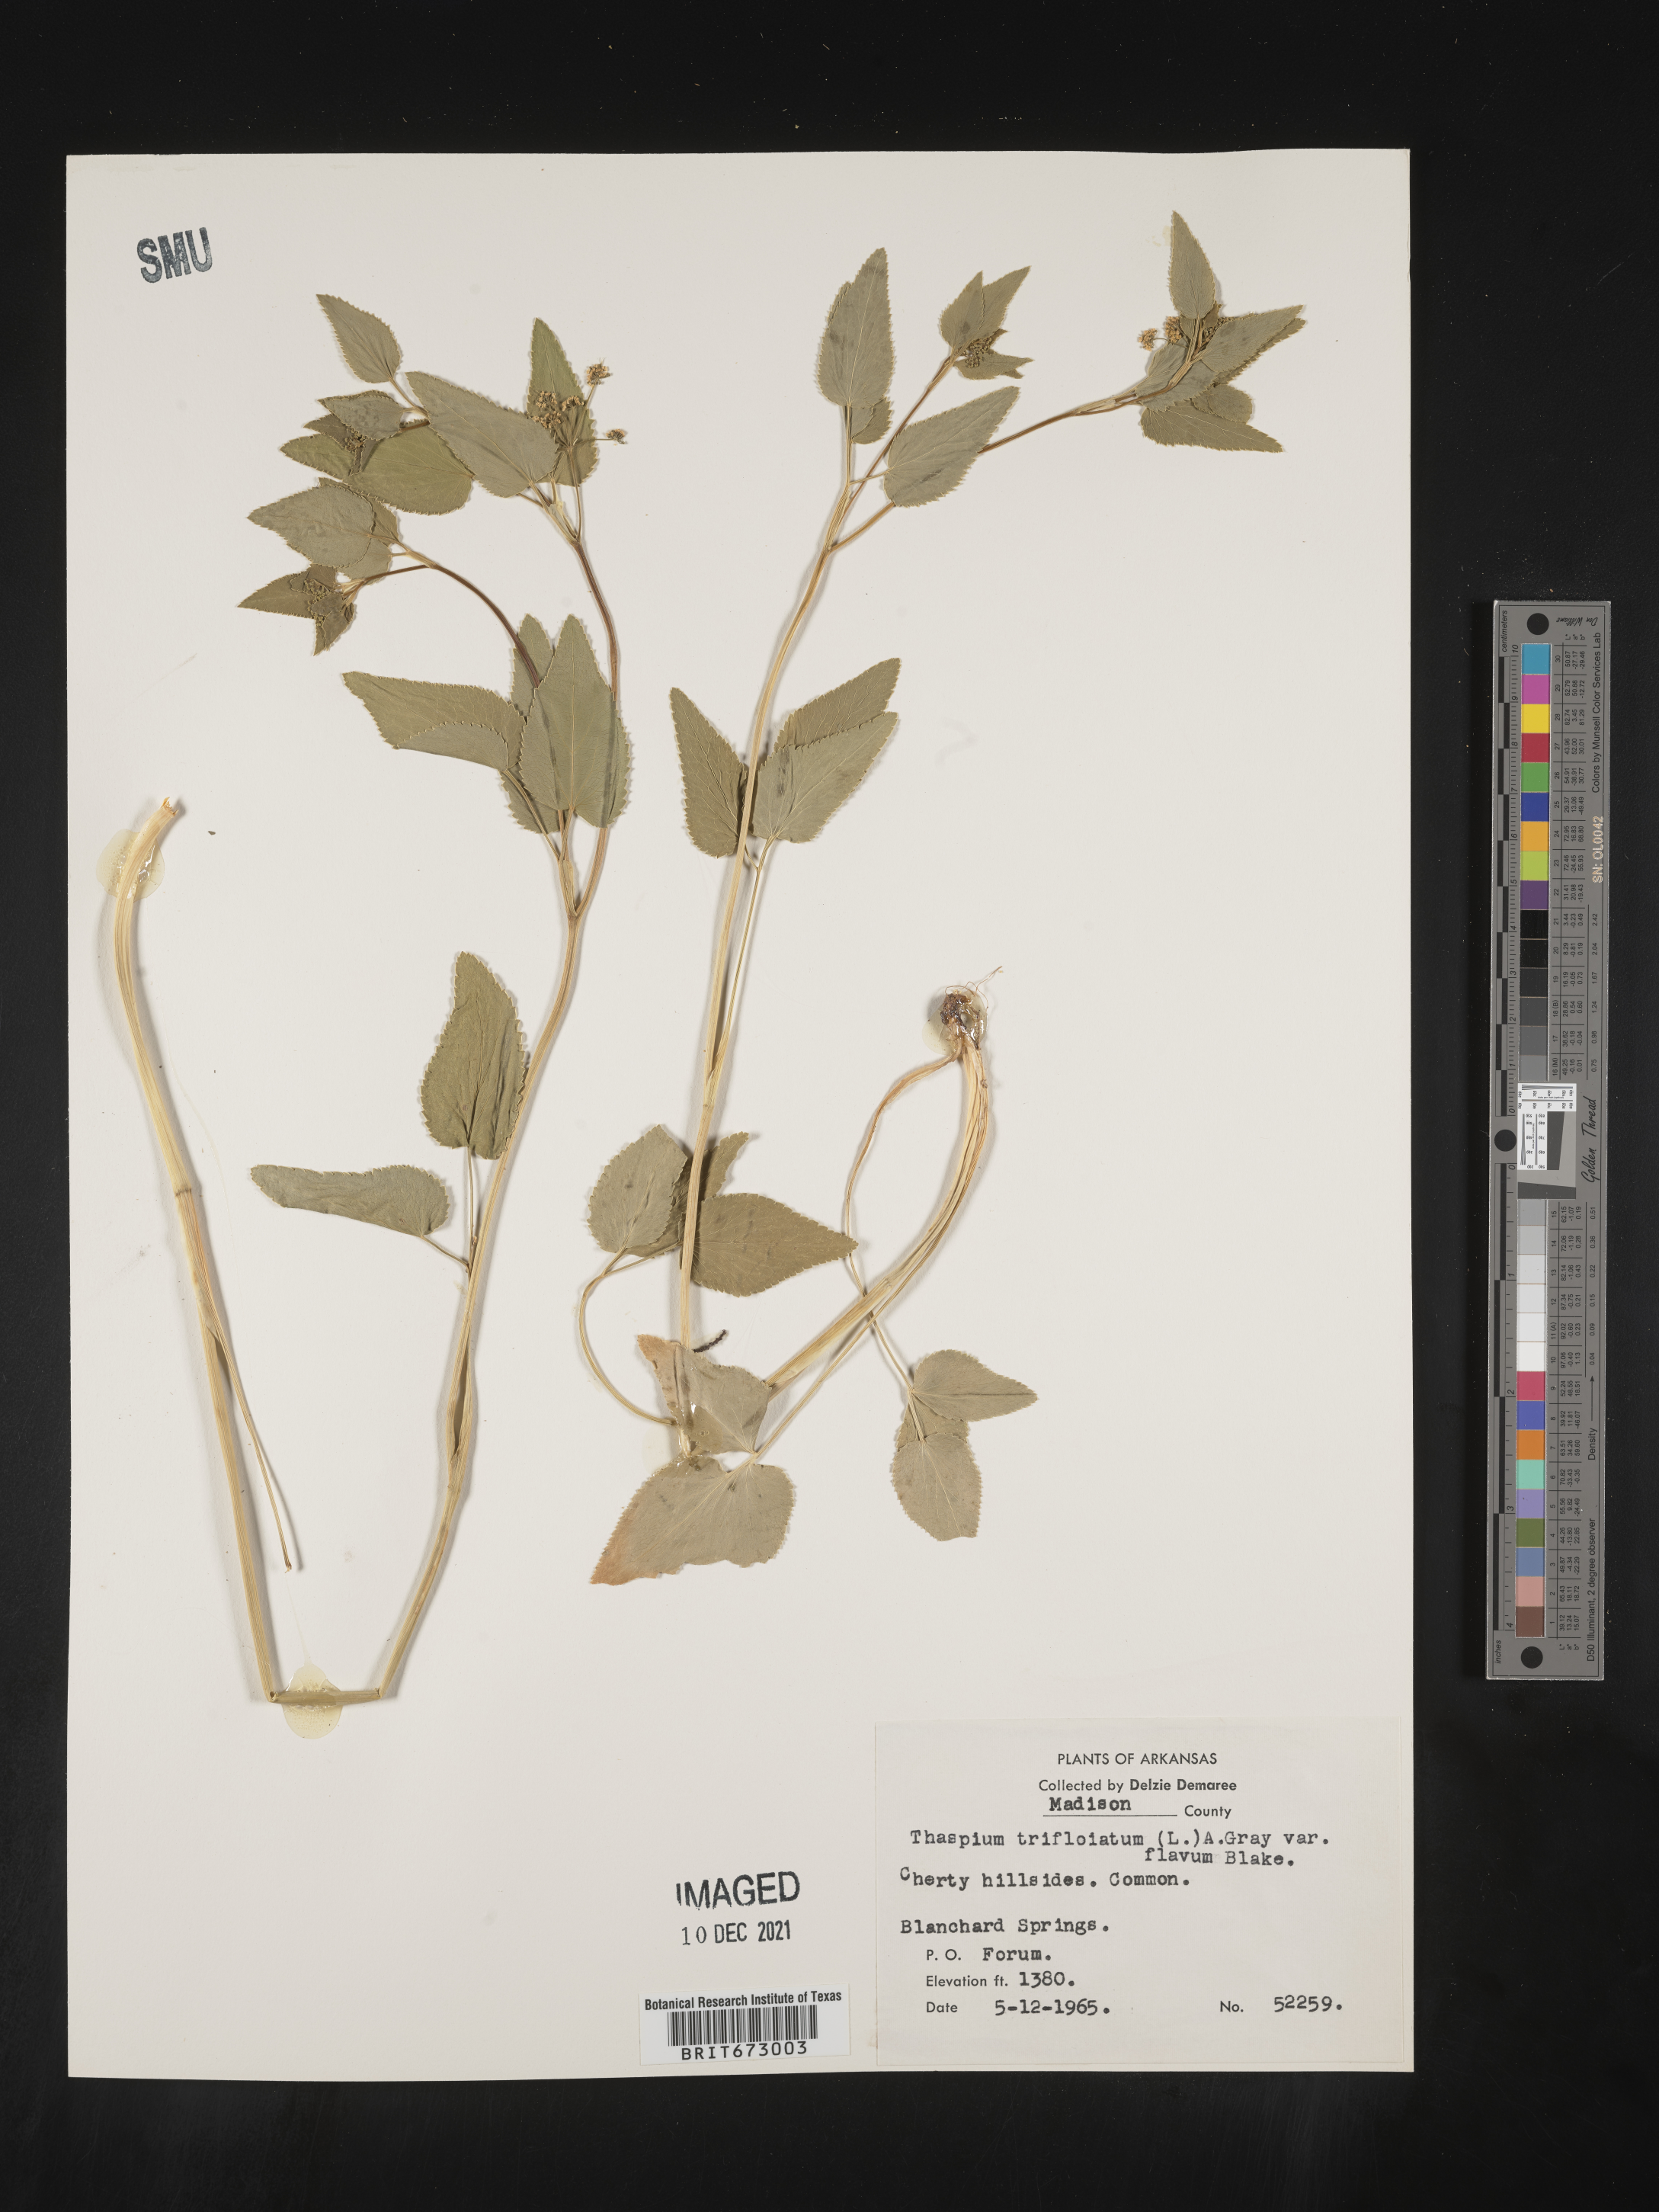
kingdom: Plantae
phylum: Tracheophyta
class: Magnoliopsida
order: Apiales
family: Apiaceae
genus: Thaspium
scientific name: Thaspium
